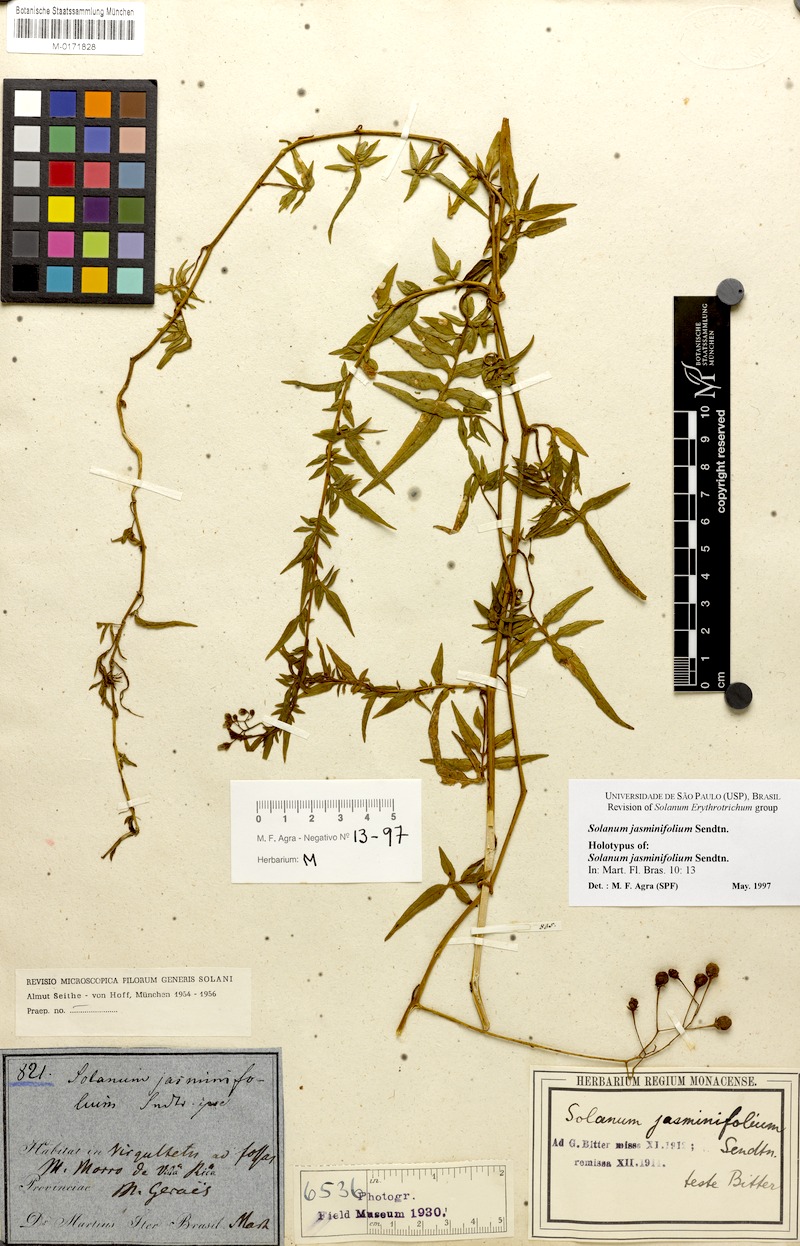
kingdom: Plantae
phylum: Tracheophyta
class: Magnoliopsida
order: Solanales
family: Solanaceae
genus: Solanum
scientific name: Solanum angustifidum
